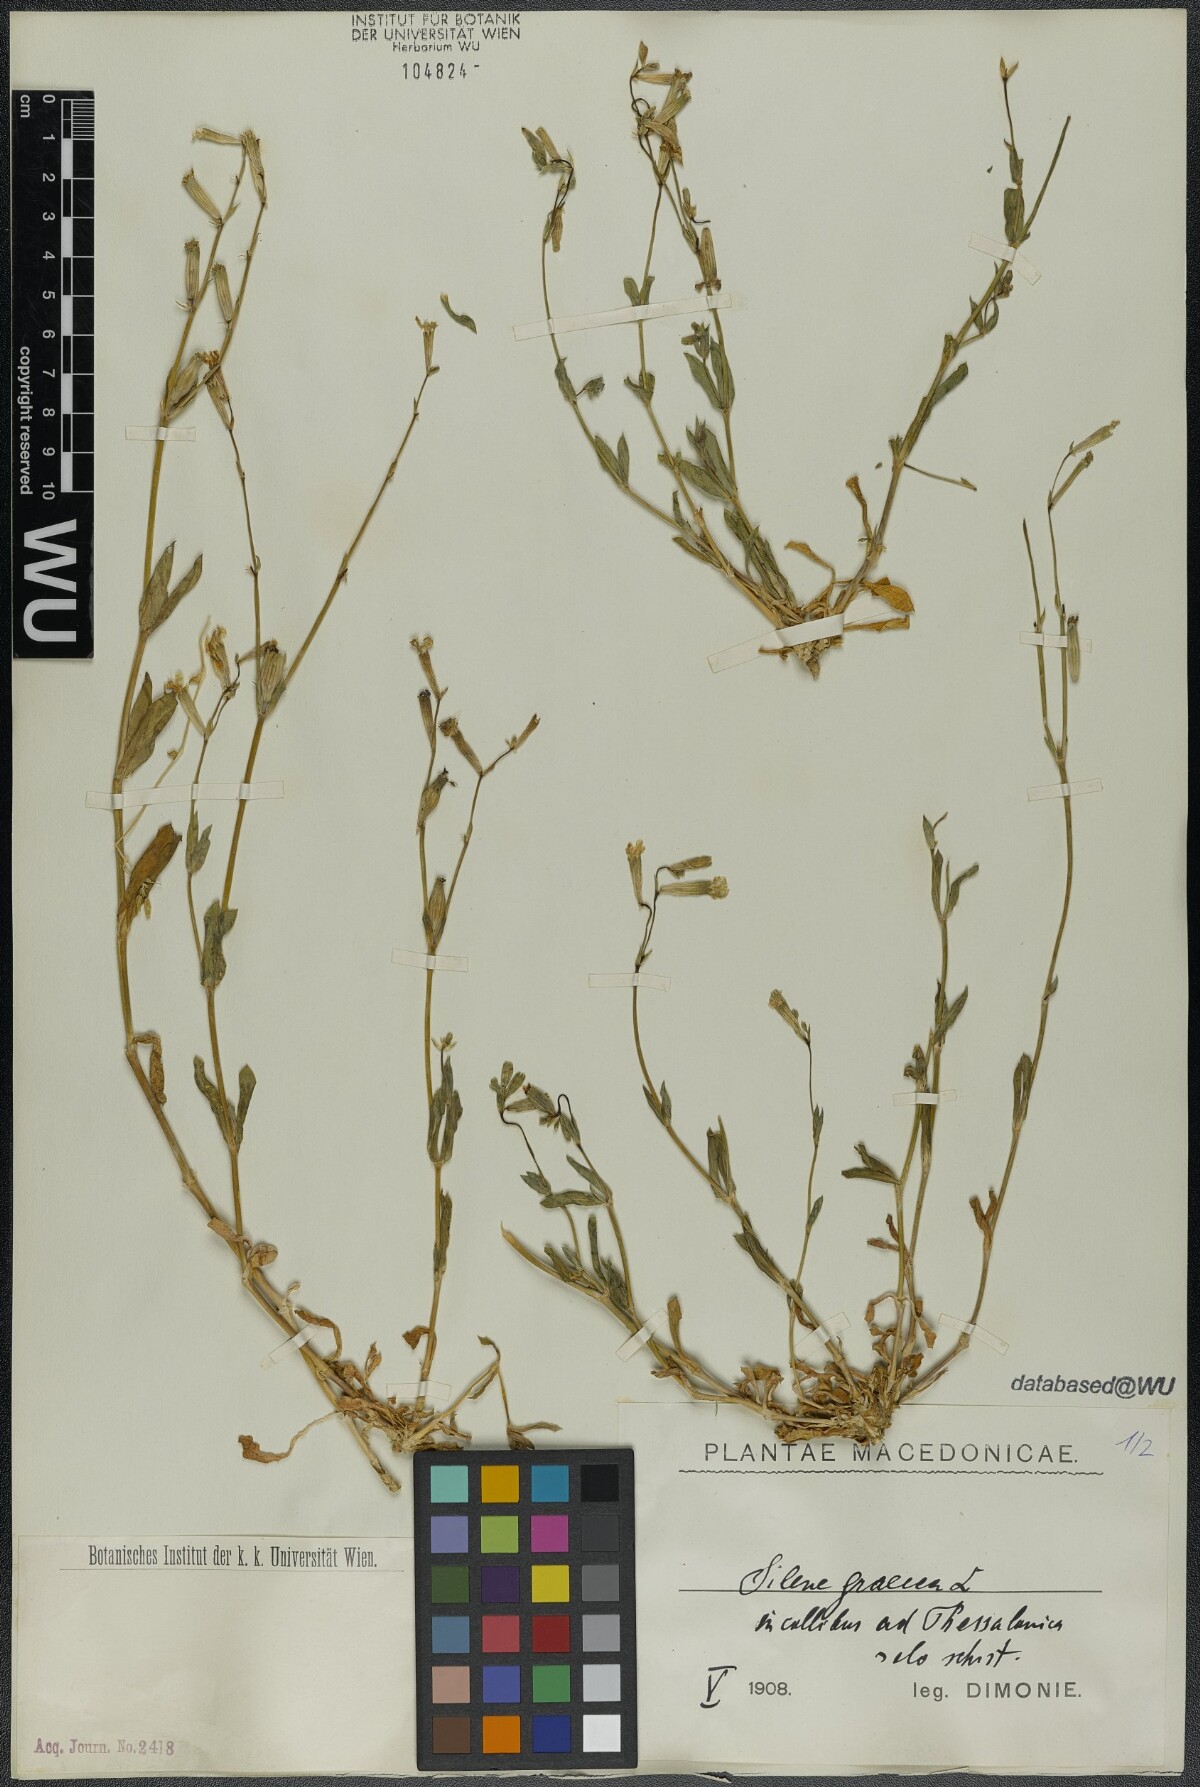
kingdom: Plantae
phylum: Tracheophyta
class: Magnoliopsida
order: Caryophyllales
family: Caryophyllaceae
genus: Silene
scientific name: Silene graeca
